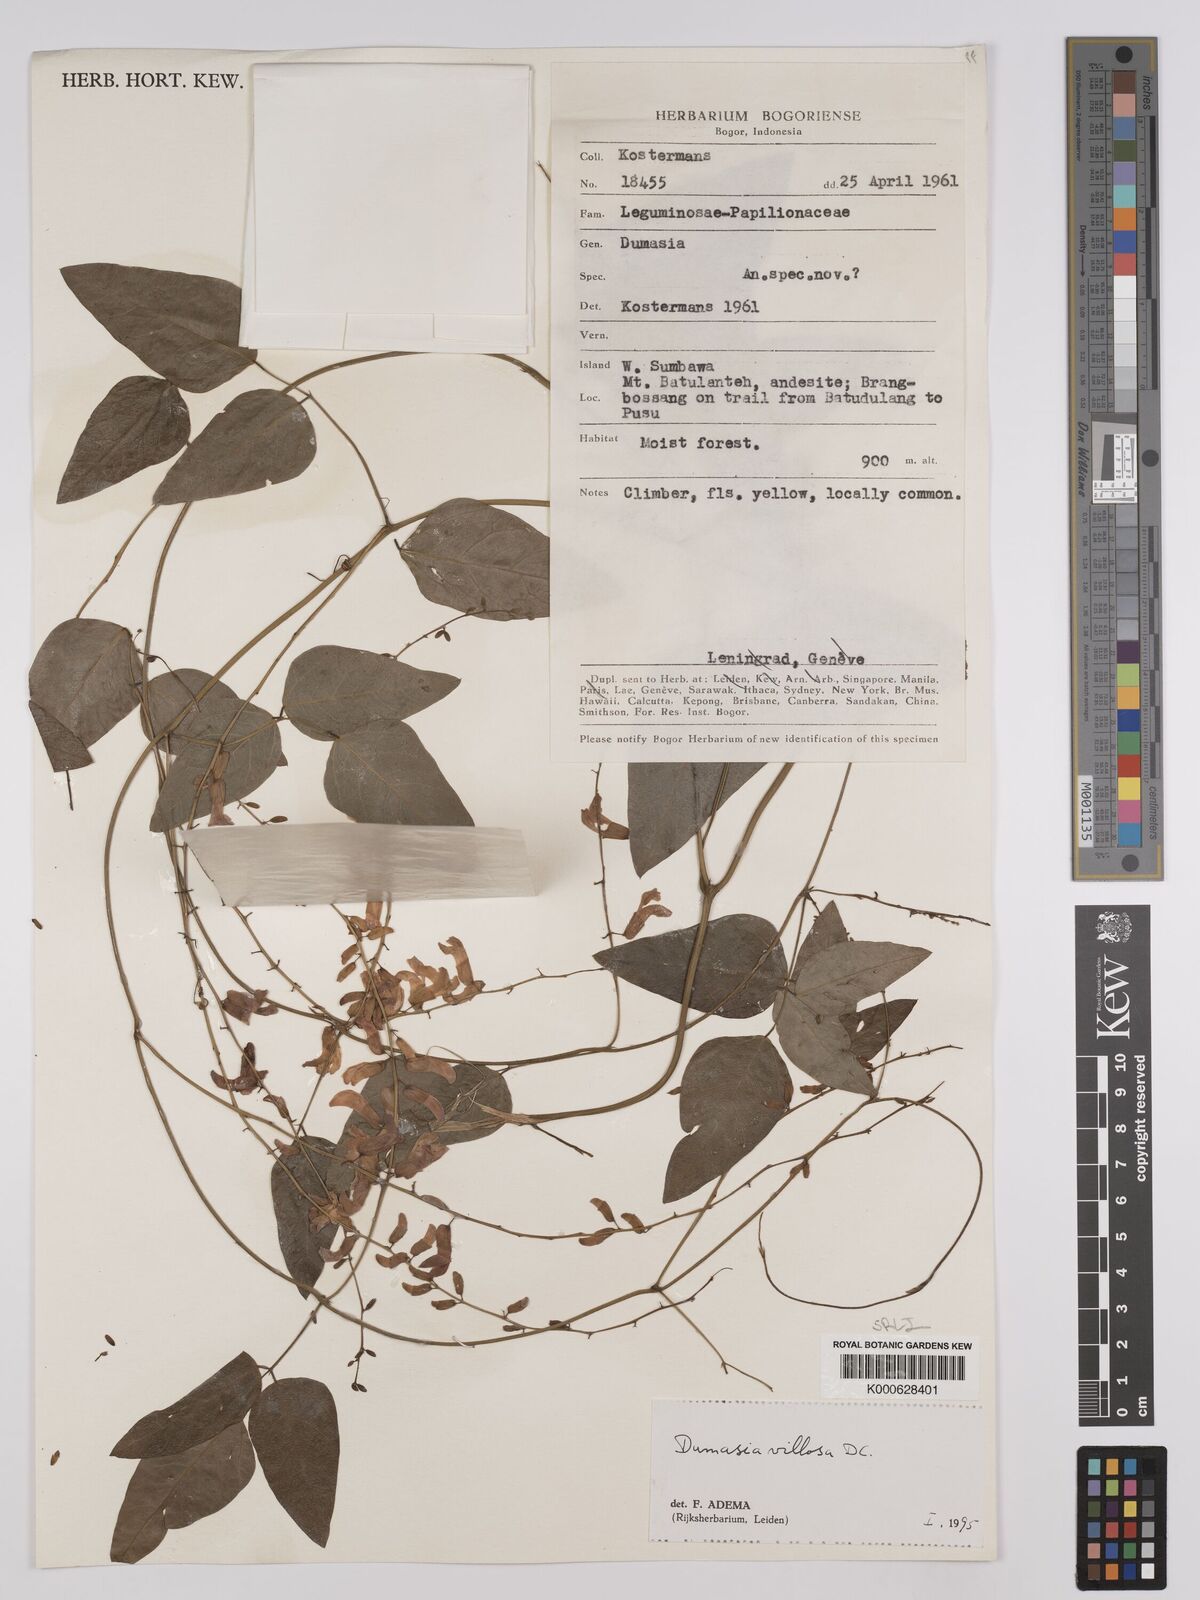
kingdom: Plantae
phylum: Tracheophyta
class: Magnoliopsida
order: Fabales
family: Fabaceae
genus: Dumasia
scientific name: Dumasia villosa
